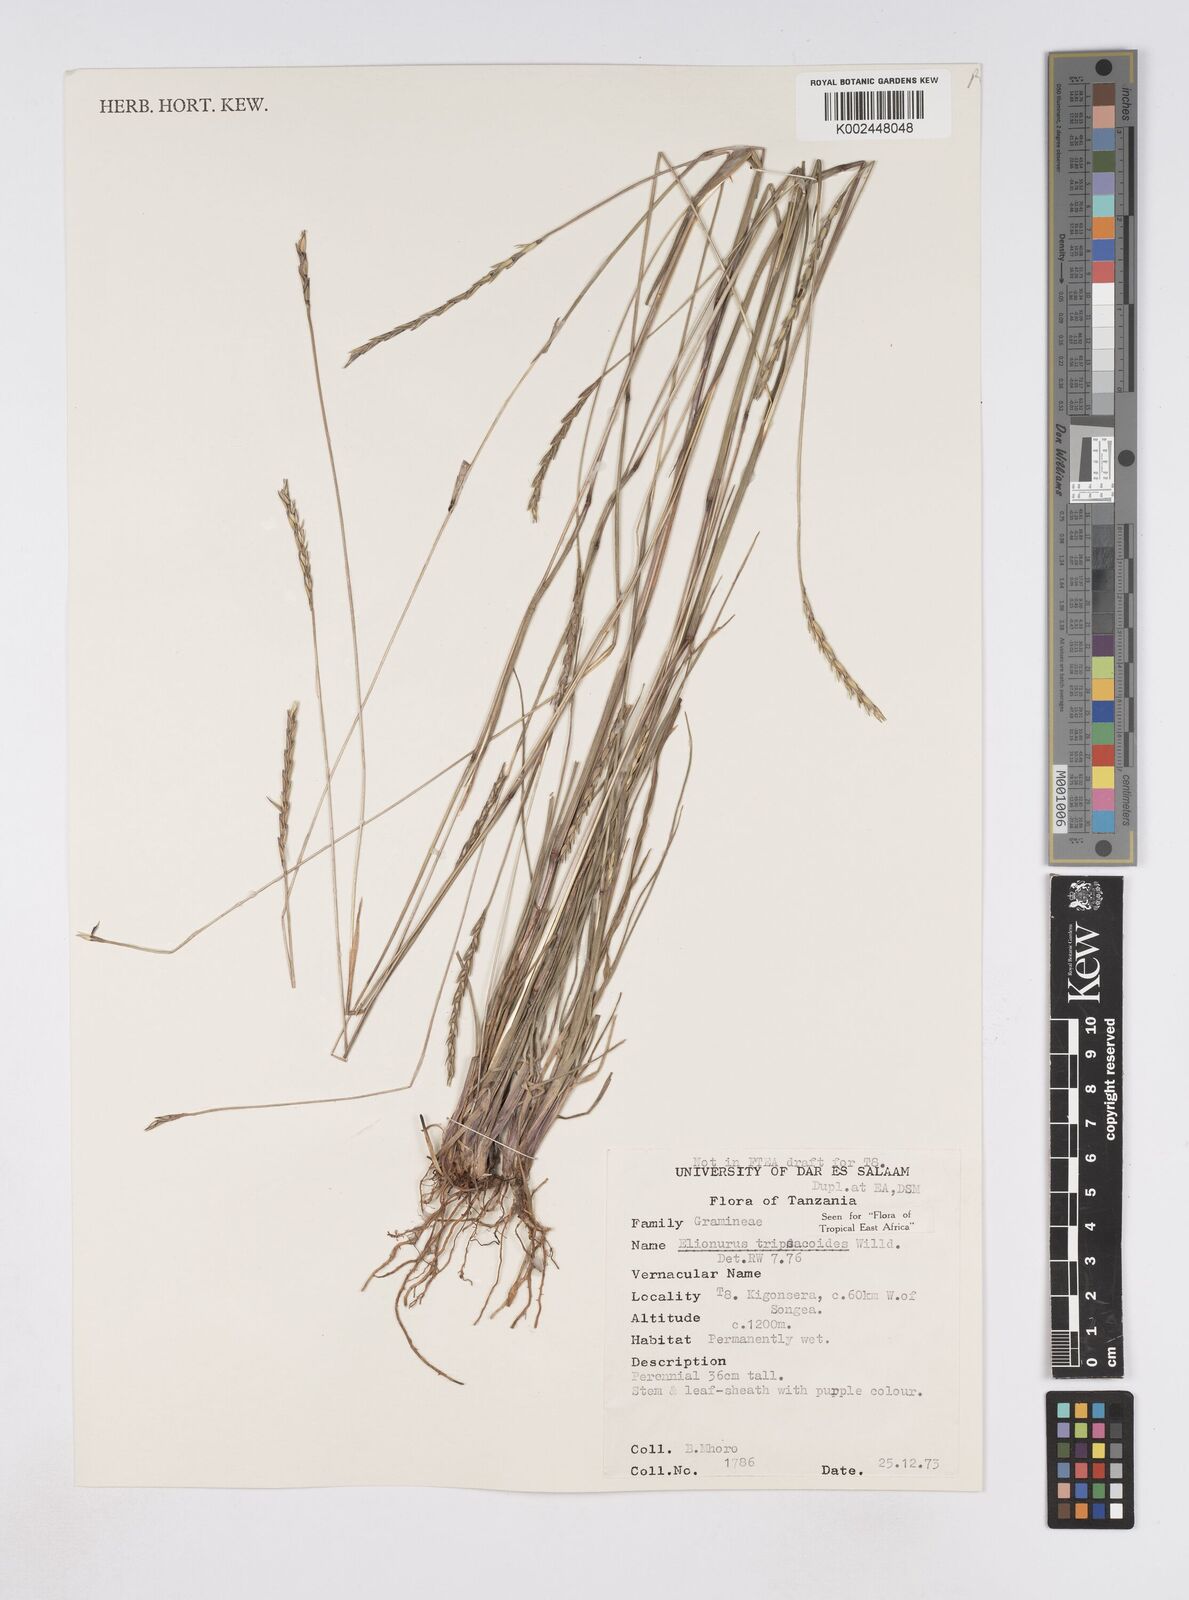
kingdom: Plantae
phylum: Tracheophyta
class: Liliopsida
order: Poales
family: Poaceae
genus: Elionurus
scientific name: Elionurus tripsacoides
